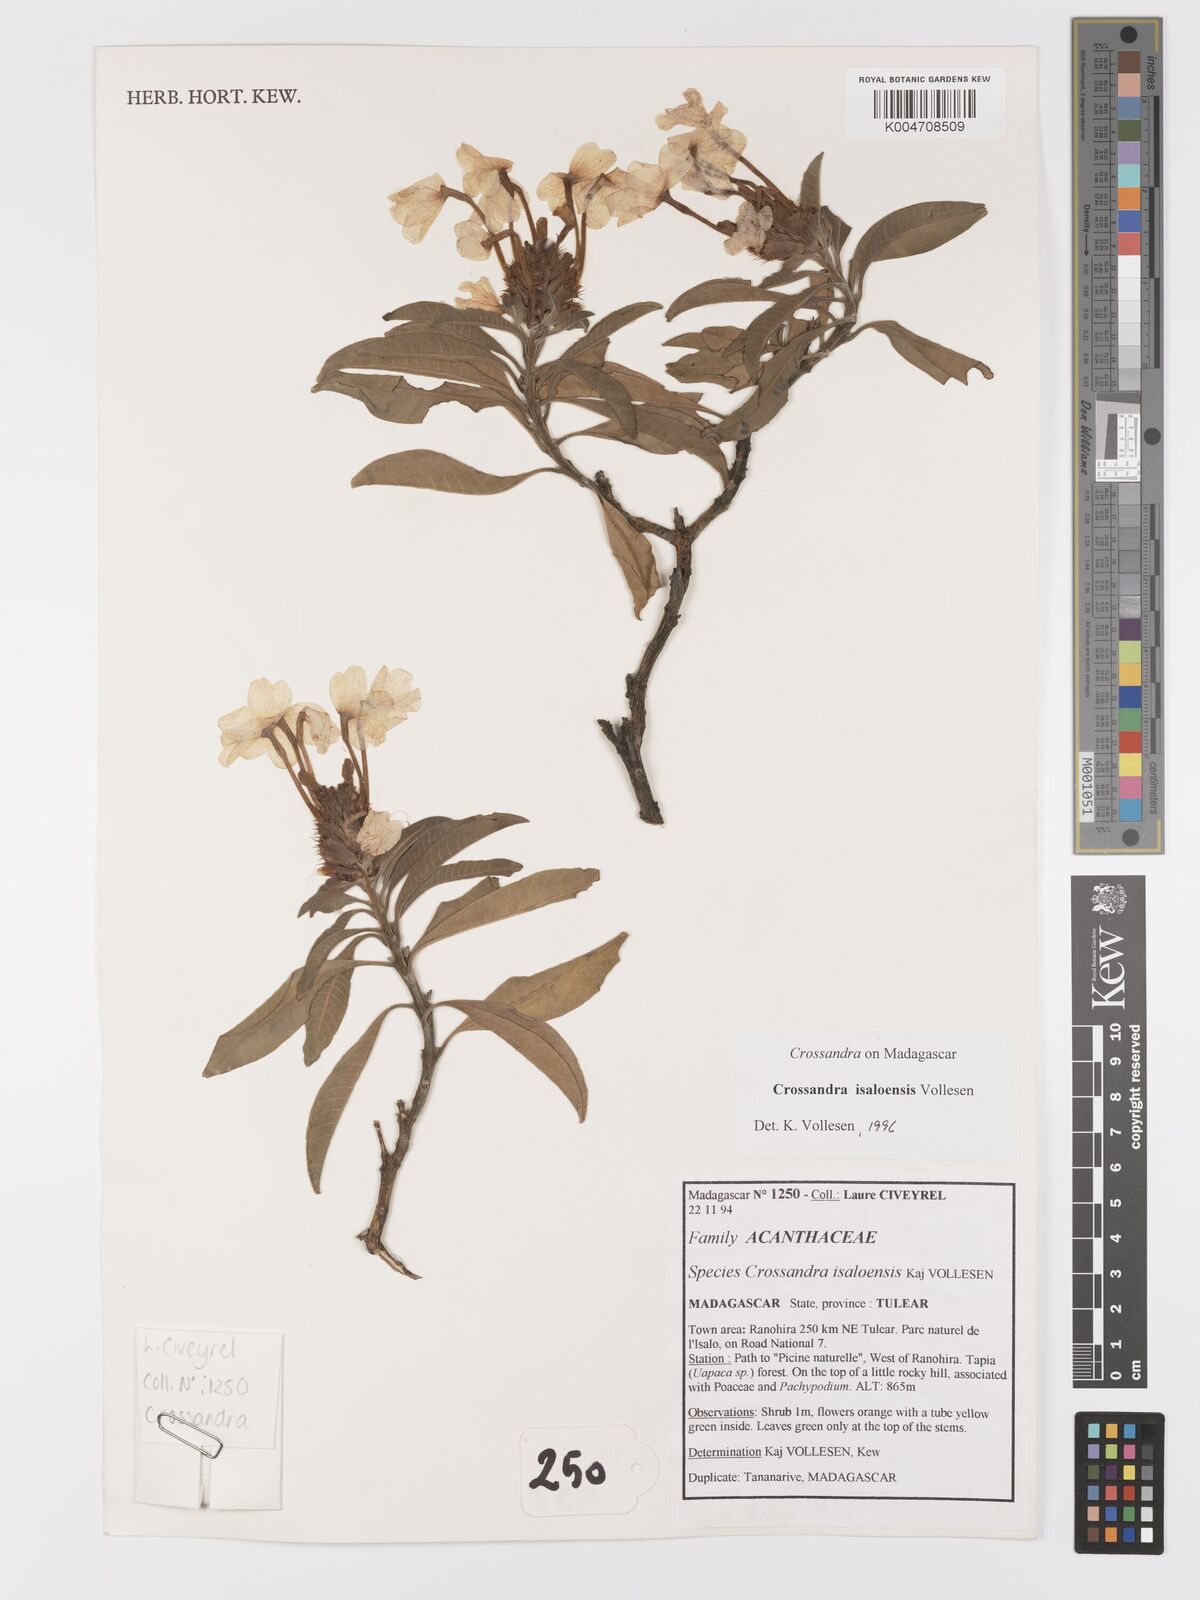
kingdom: Plantae
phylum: Tracheophyta
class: Magnoliopsida
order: Lamiales
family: Acanthaceae
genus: Crossandra
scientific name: Crossandra isaloensis
